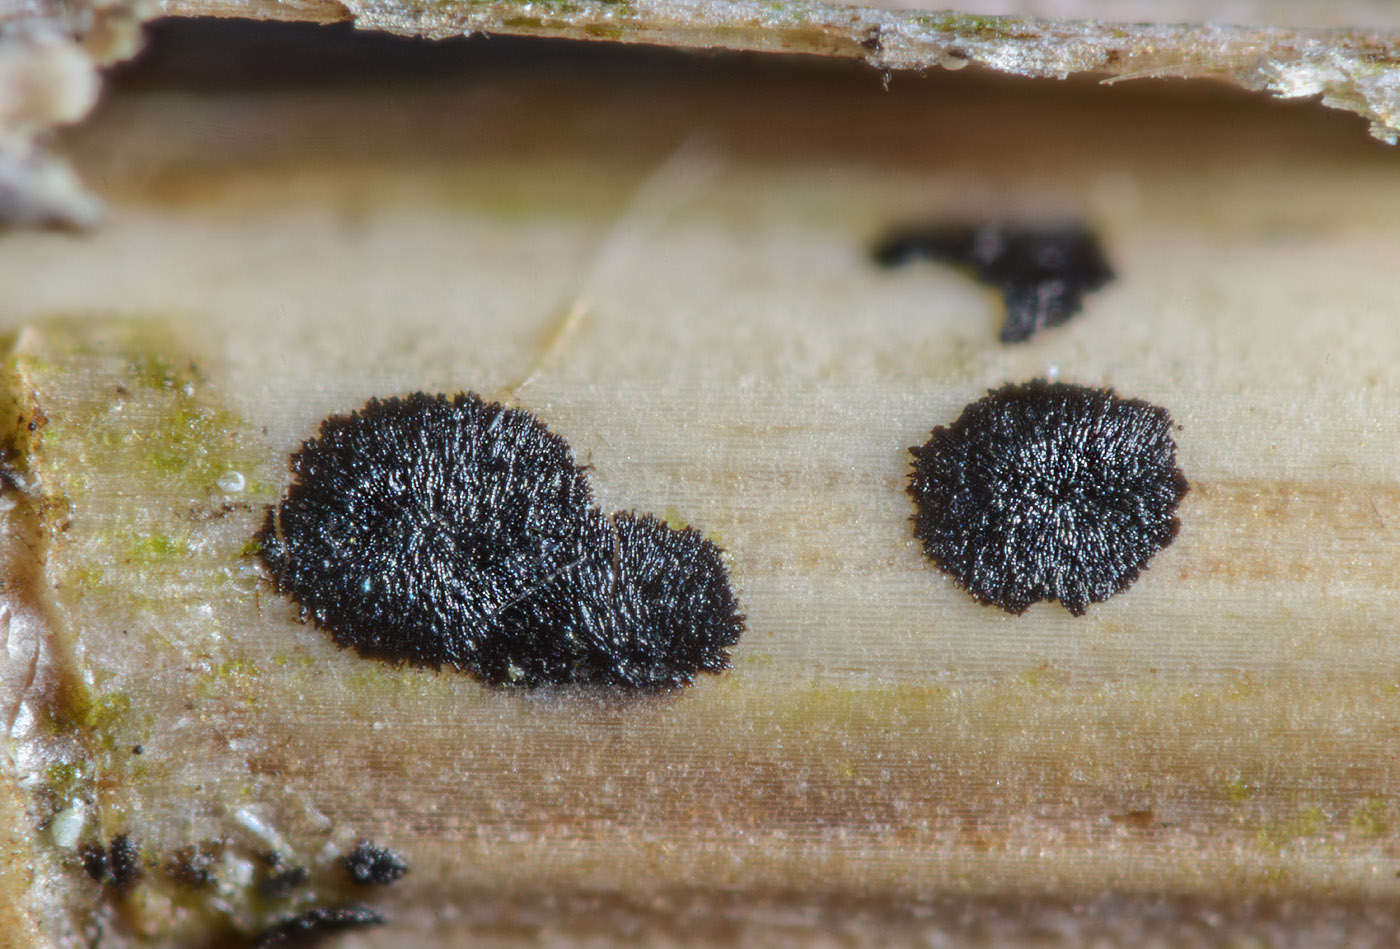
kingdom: Fungi
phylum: Ascomycota
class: Leotiomycetes
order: Rhytismatales
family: Rhytismataceae
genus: Lophodermium
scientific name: Lophodermium apiculatum
